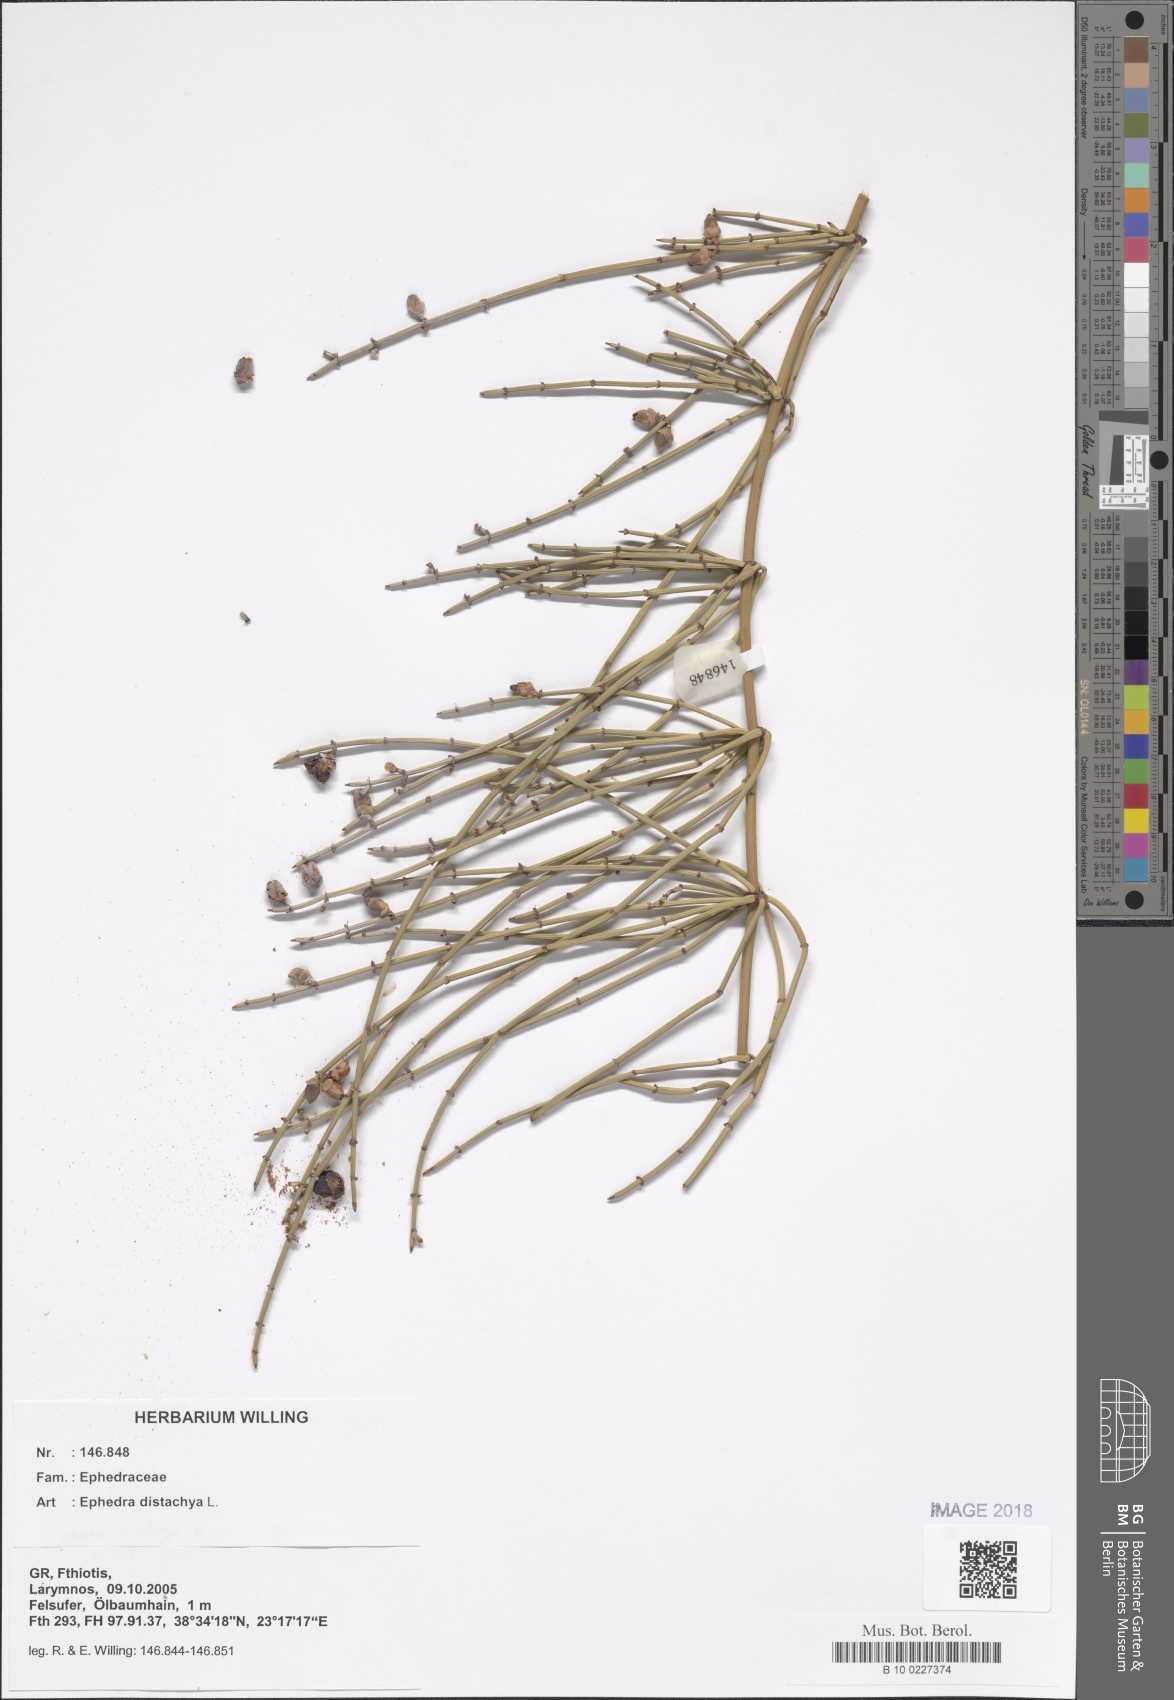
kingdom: Plantae
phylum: Tracheophyta
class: Magnoliopsida
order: Caryophyllales
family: Caryophyllaceae
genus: Silene
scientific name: Silene congesta
